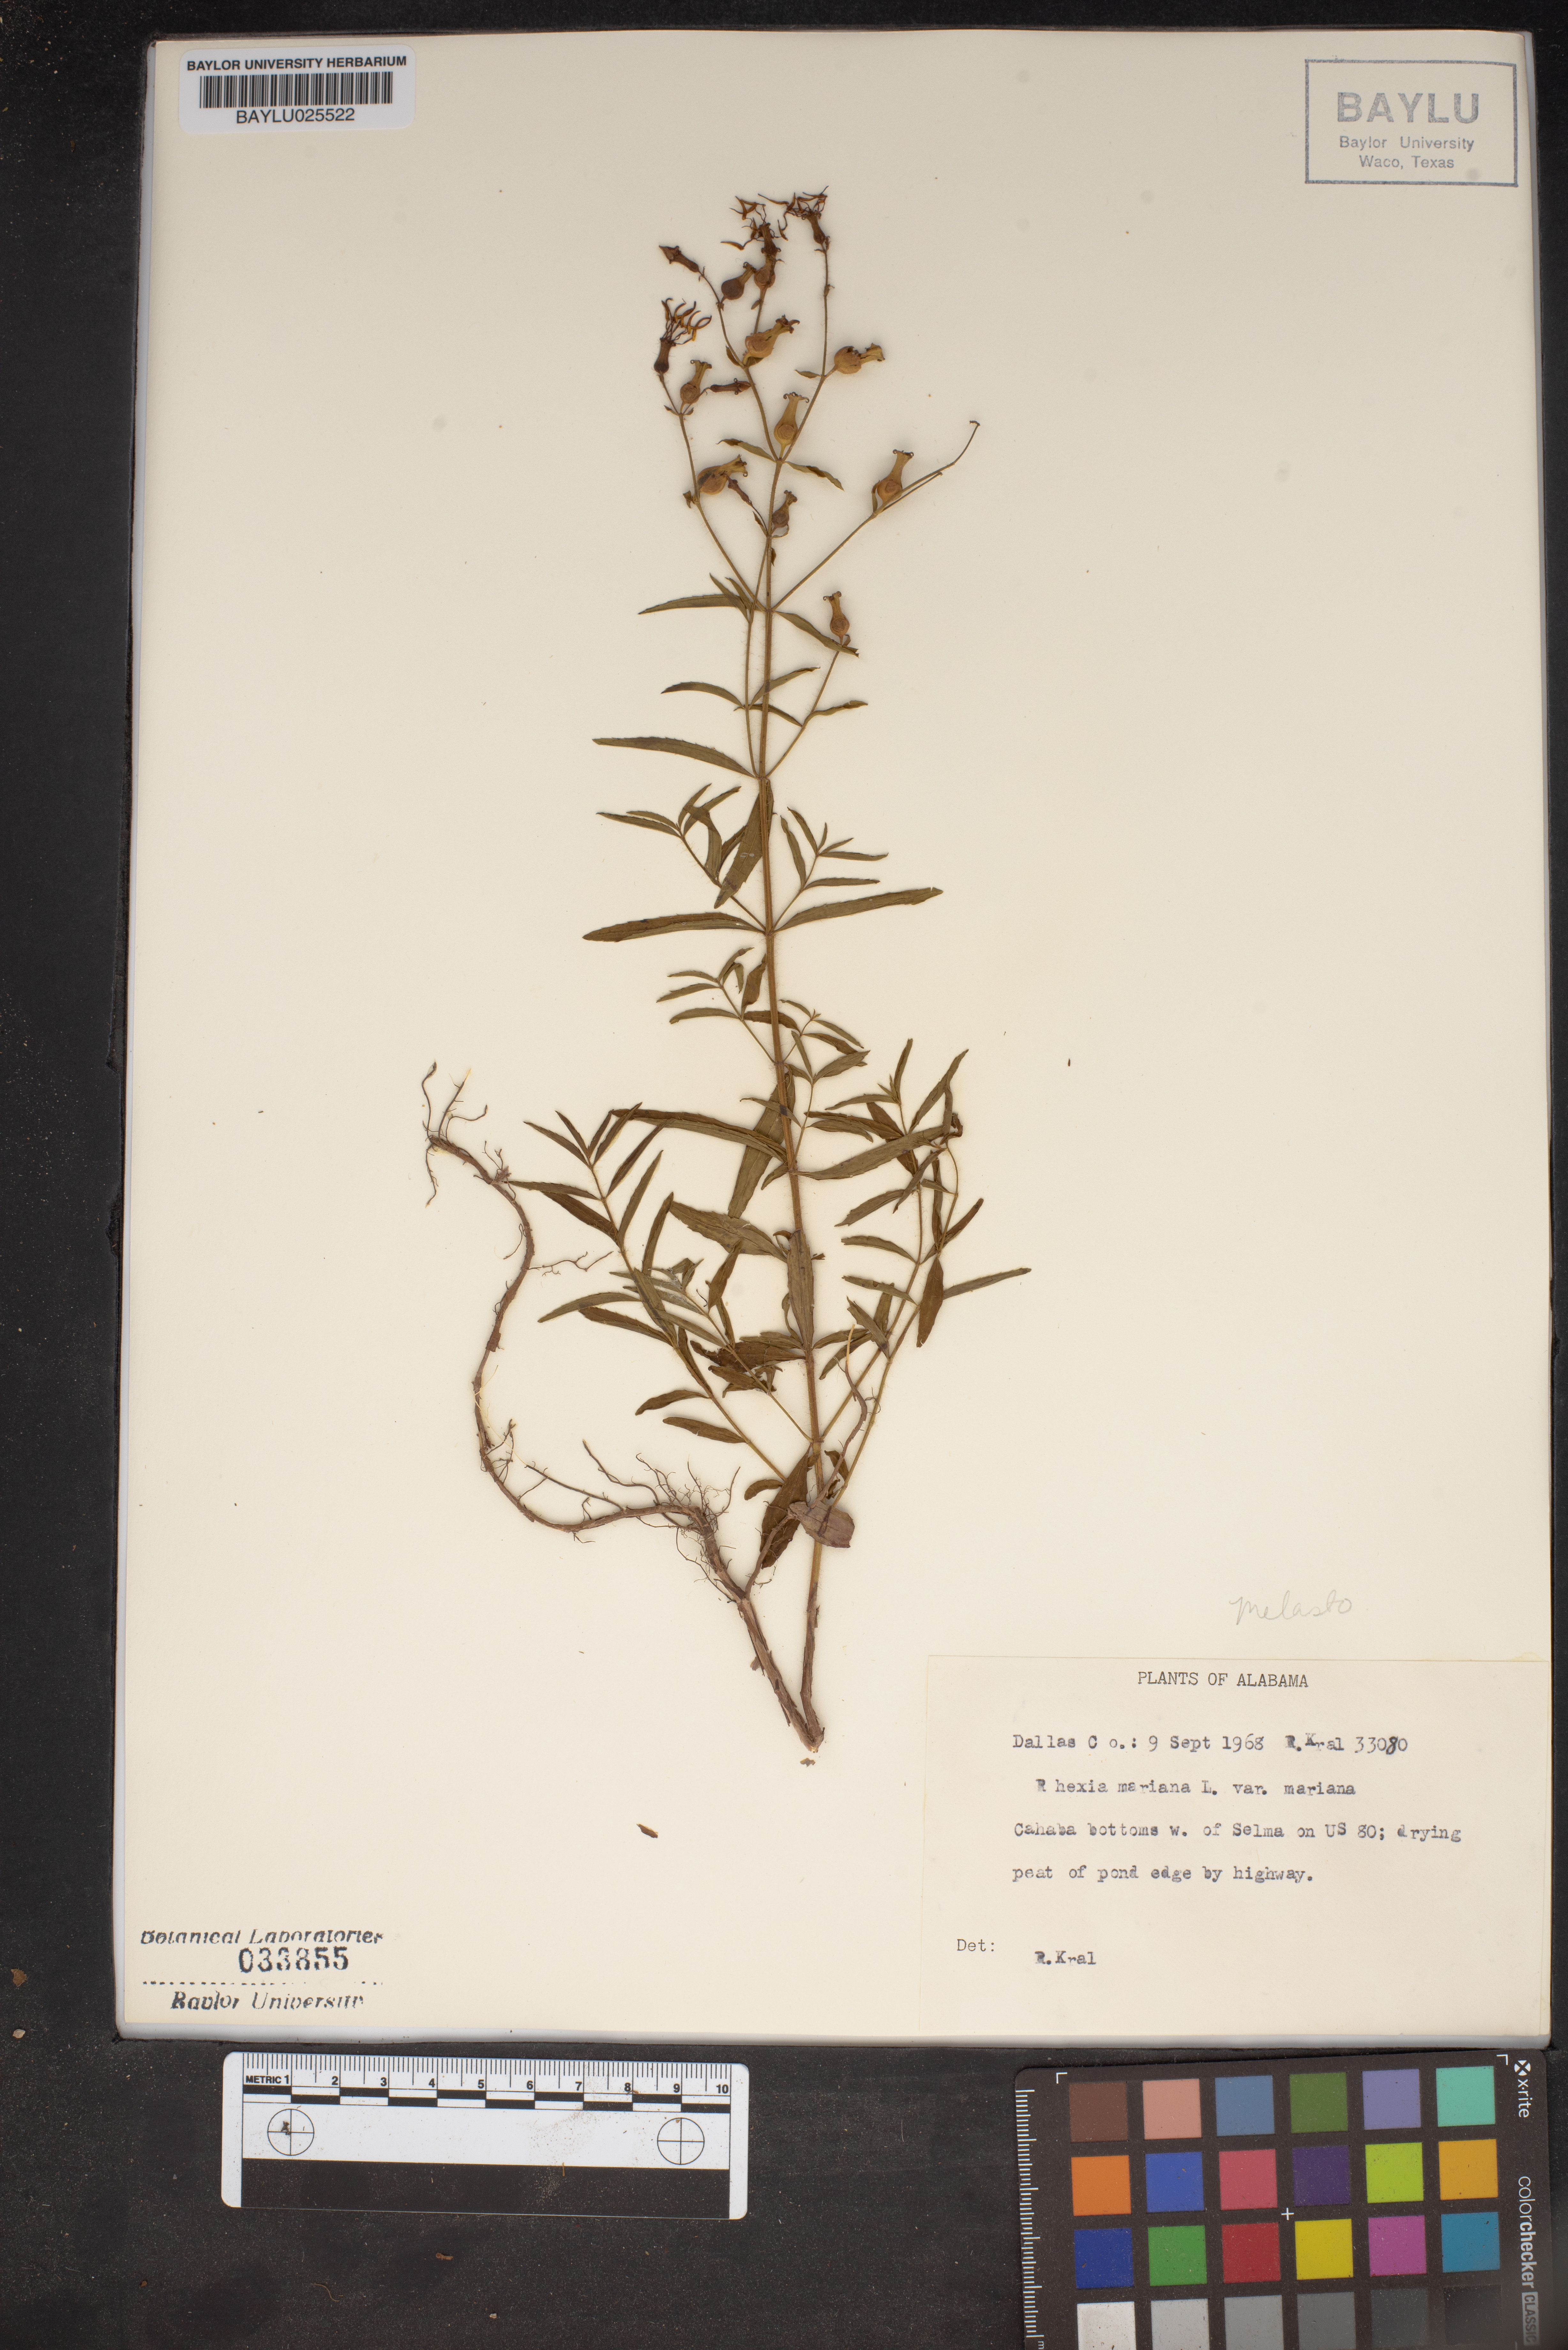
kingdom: Plantae
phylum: Tracheophyta
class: Magnoliopsida
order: Myrtales
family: Melastomataceae
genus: Rhexia
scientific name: Rhexia mariana
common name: Dull meadow-pitcher
